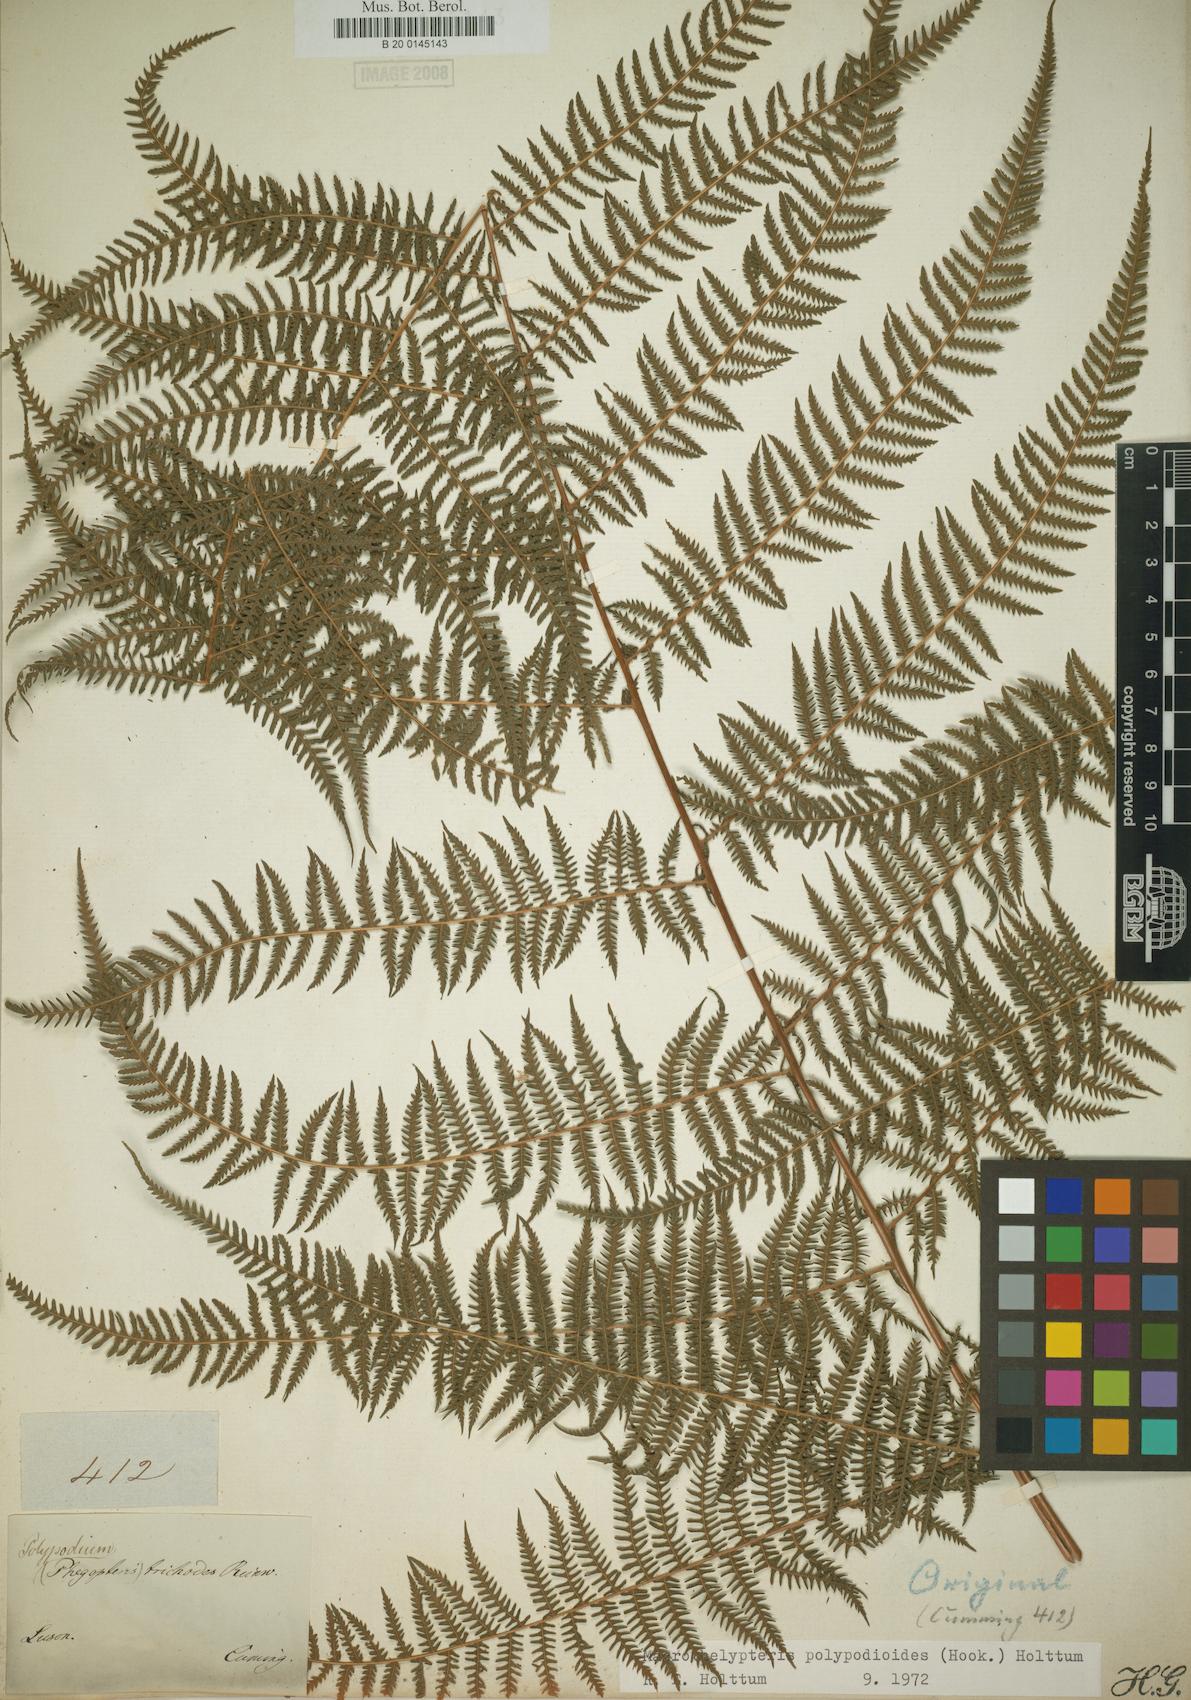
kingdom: Plantae
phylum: Tracheophyta
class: Polypodiopsida
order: Polypodiales
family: Thelypteridaceae
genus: Macrothelypteris
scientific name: Macrothelypteris polypodioides
